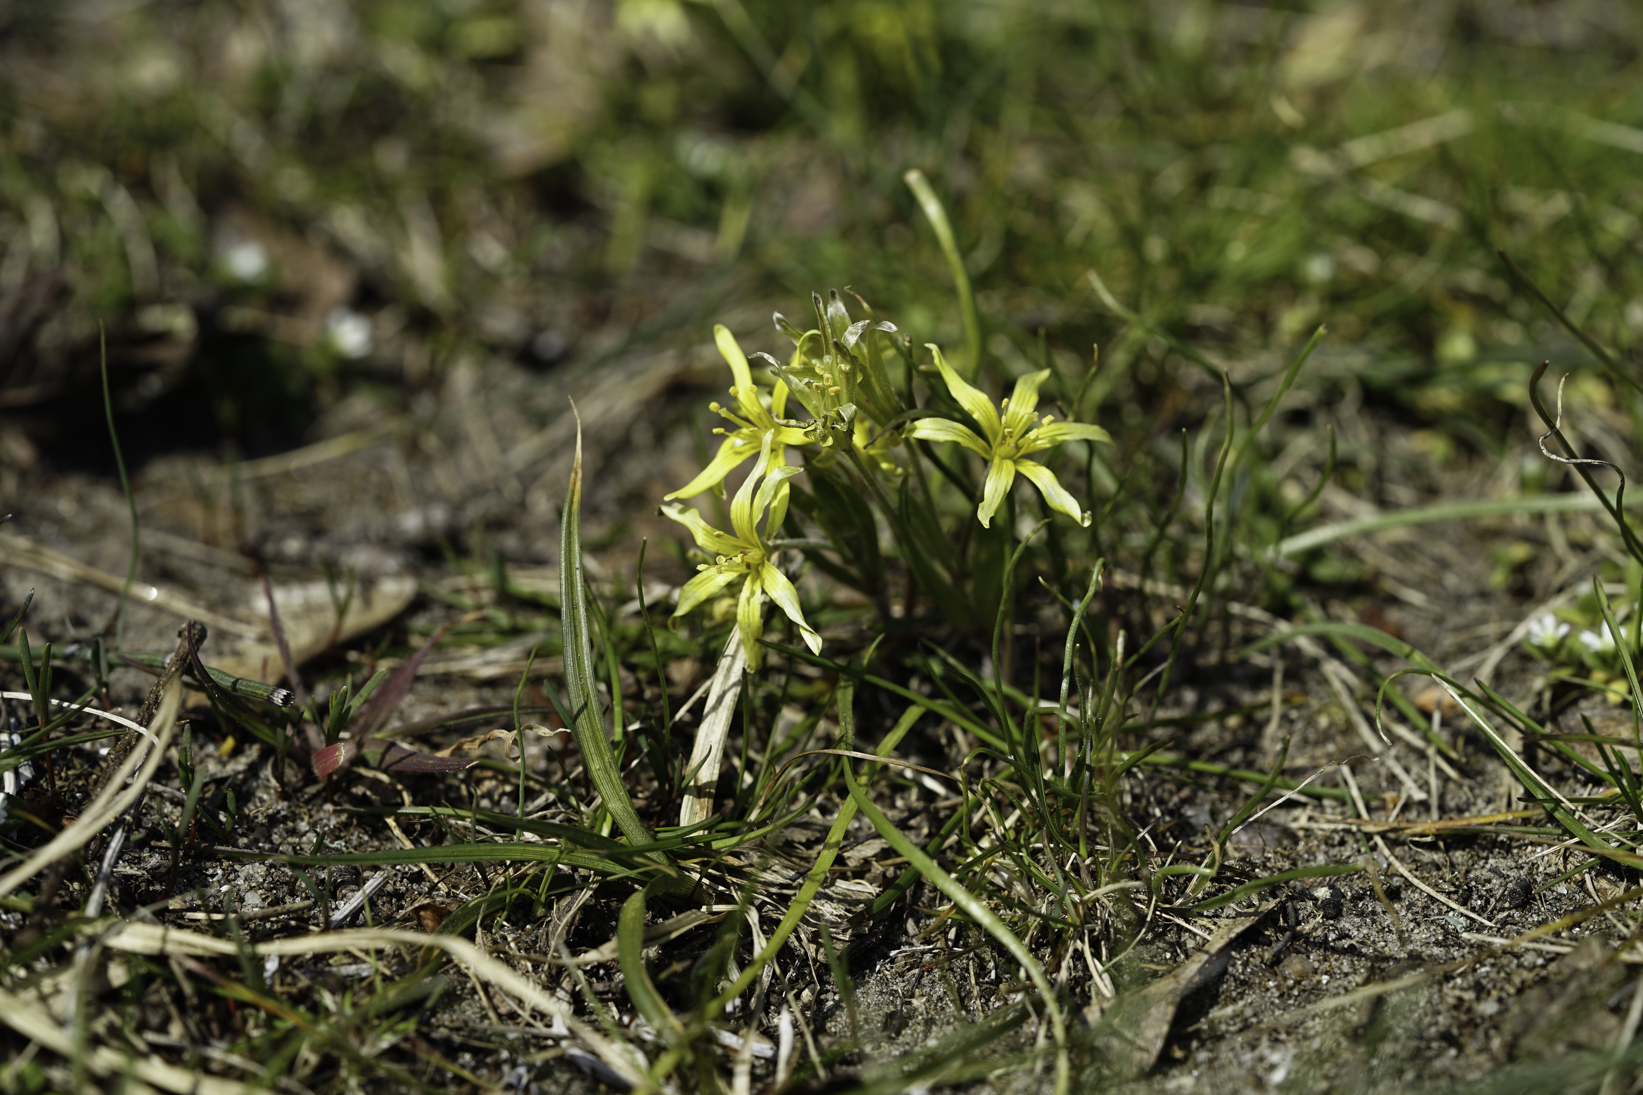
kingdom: Plantae
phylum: Tracheophyta
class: Liliopsida
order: Liliales
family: Liliaceae
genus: Gagea
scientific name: Gagea villosa
